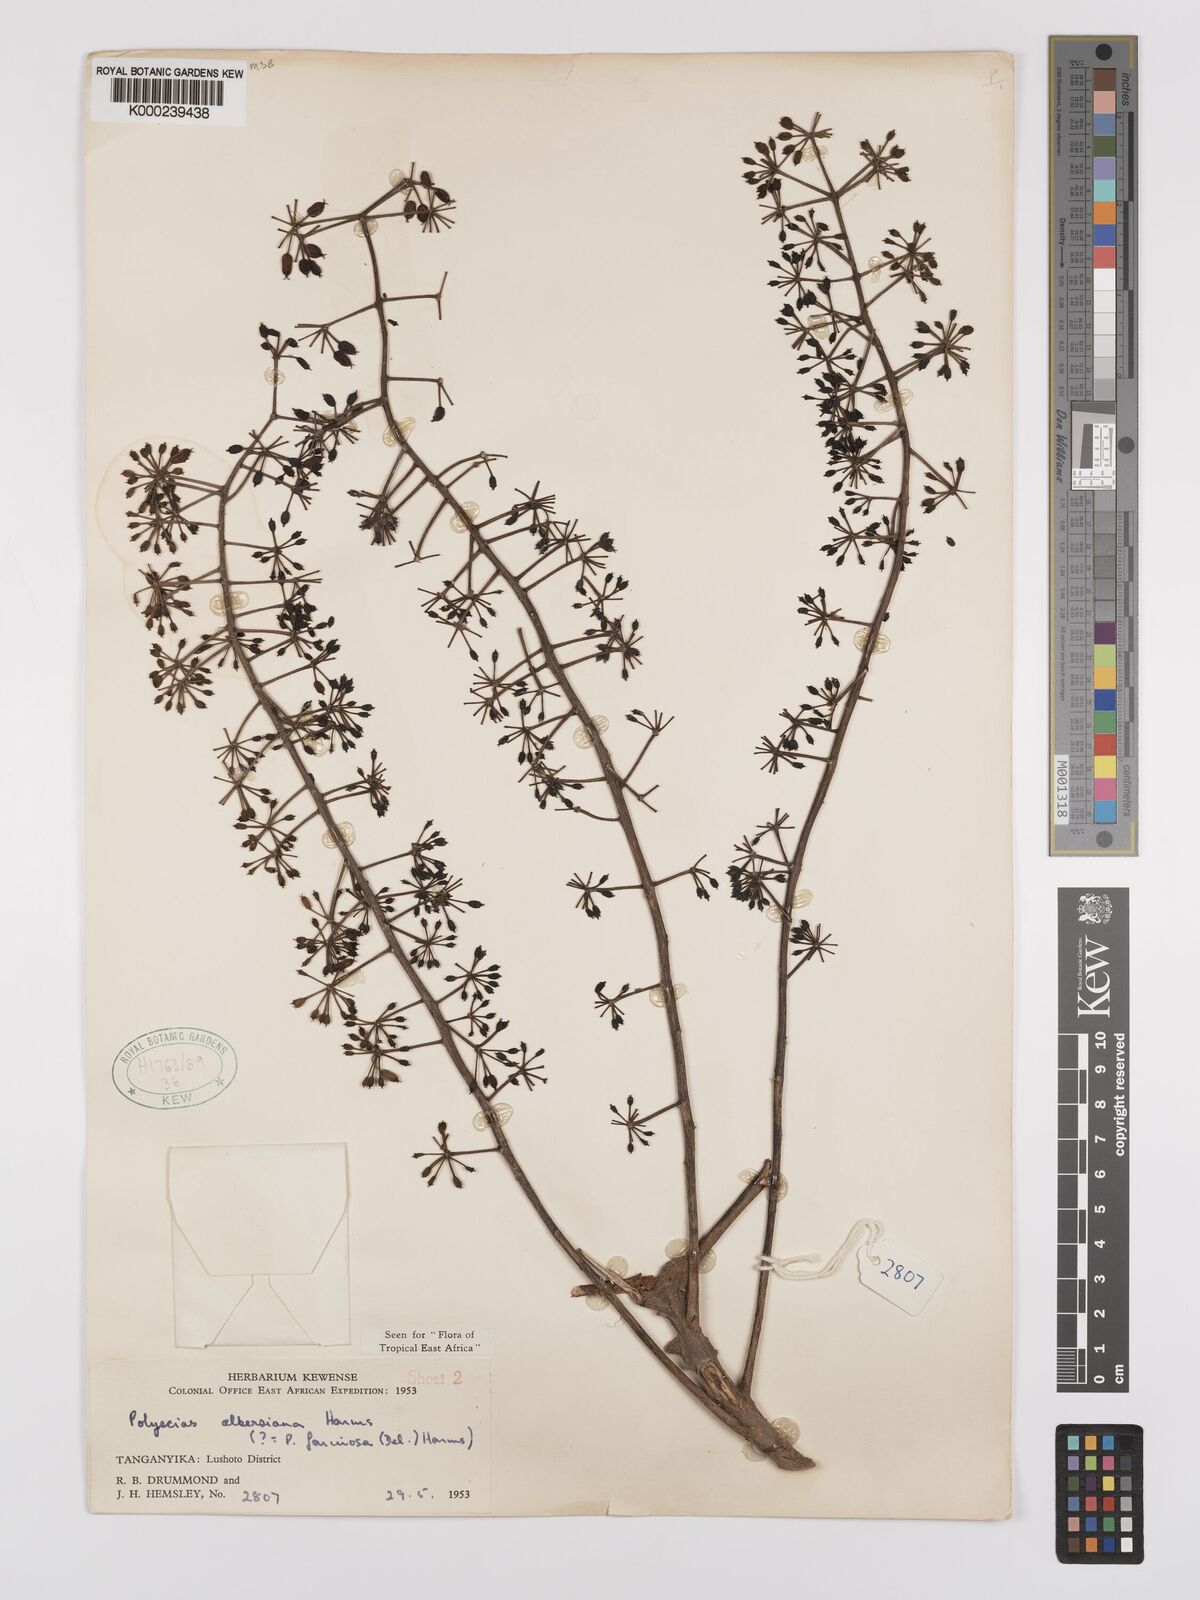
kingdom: Plantae
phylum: Tracheophyta
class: Magnoliopsida
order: Apiales
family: Araliaceae
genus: Polyscias
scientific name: Polyscias albersiana
